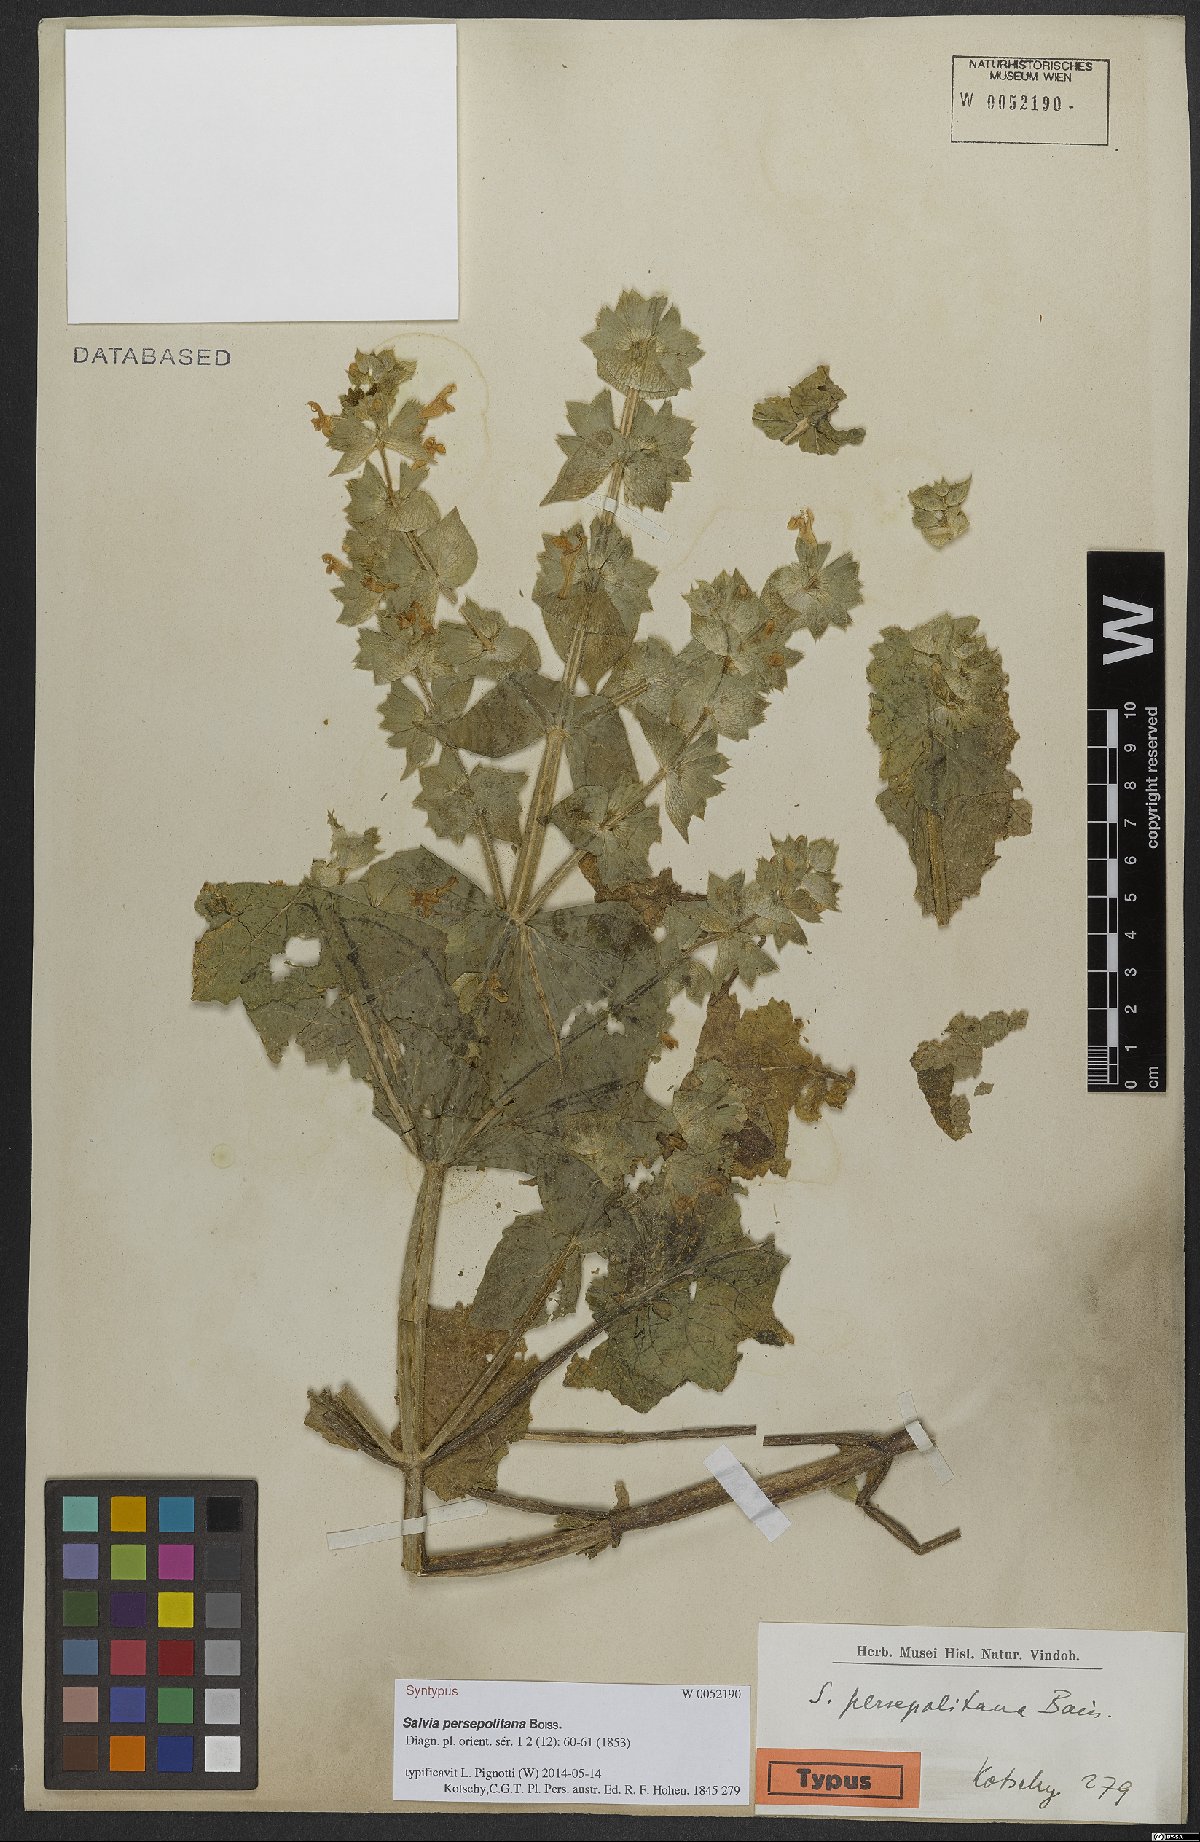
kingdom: Plantae
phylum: Tracheophyta
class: Magnoliopsida
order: Lamiales
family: Lamiaceae
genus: Salvia
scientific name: Salvia persepolitana
